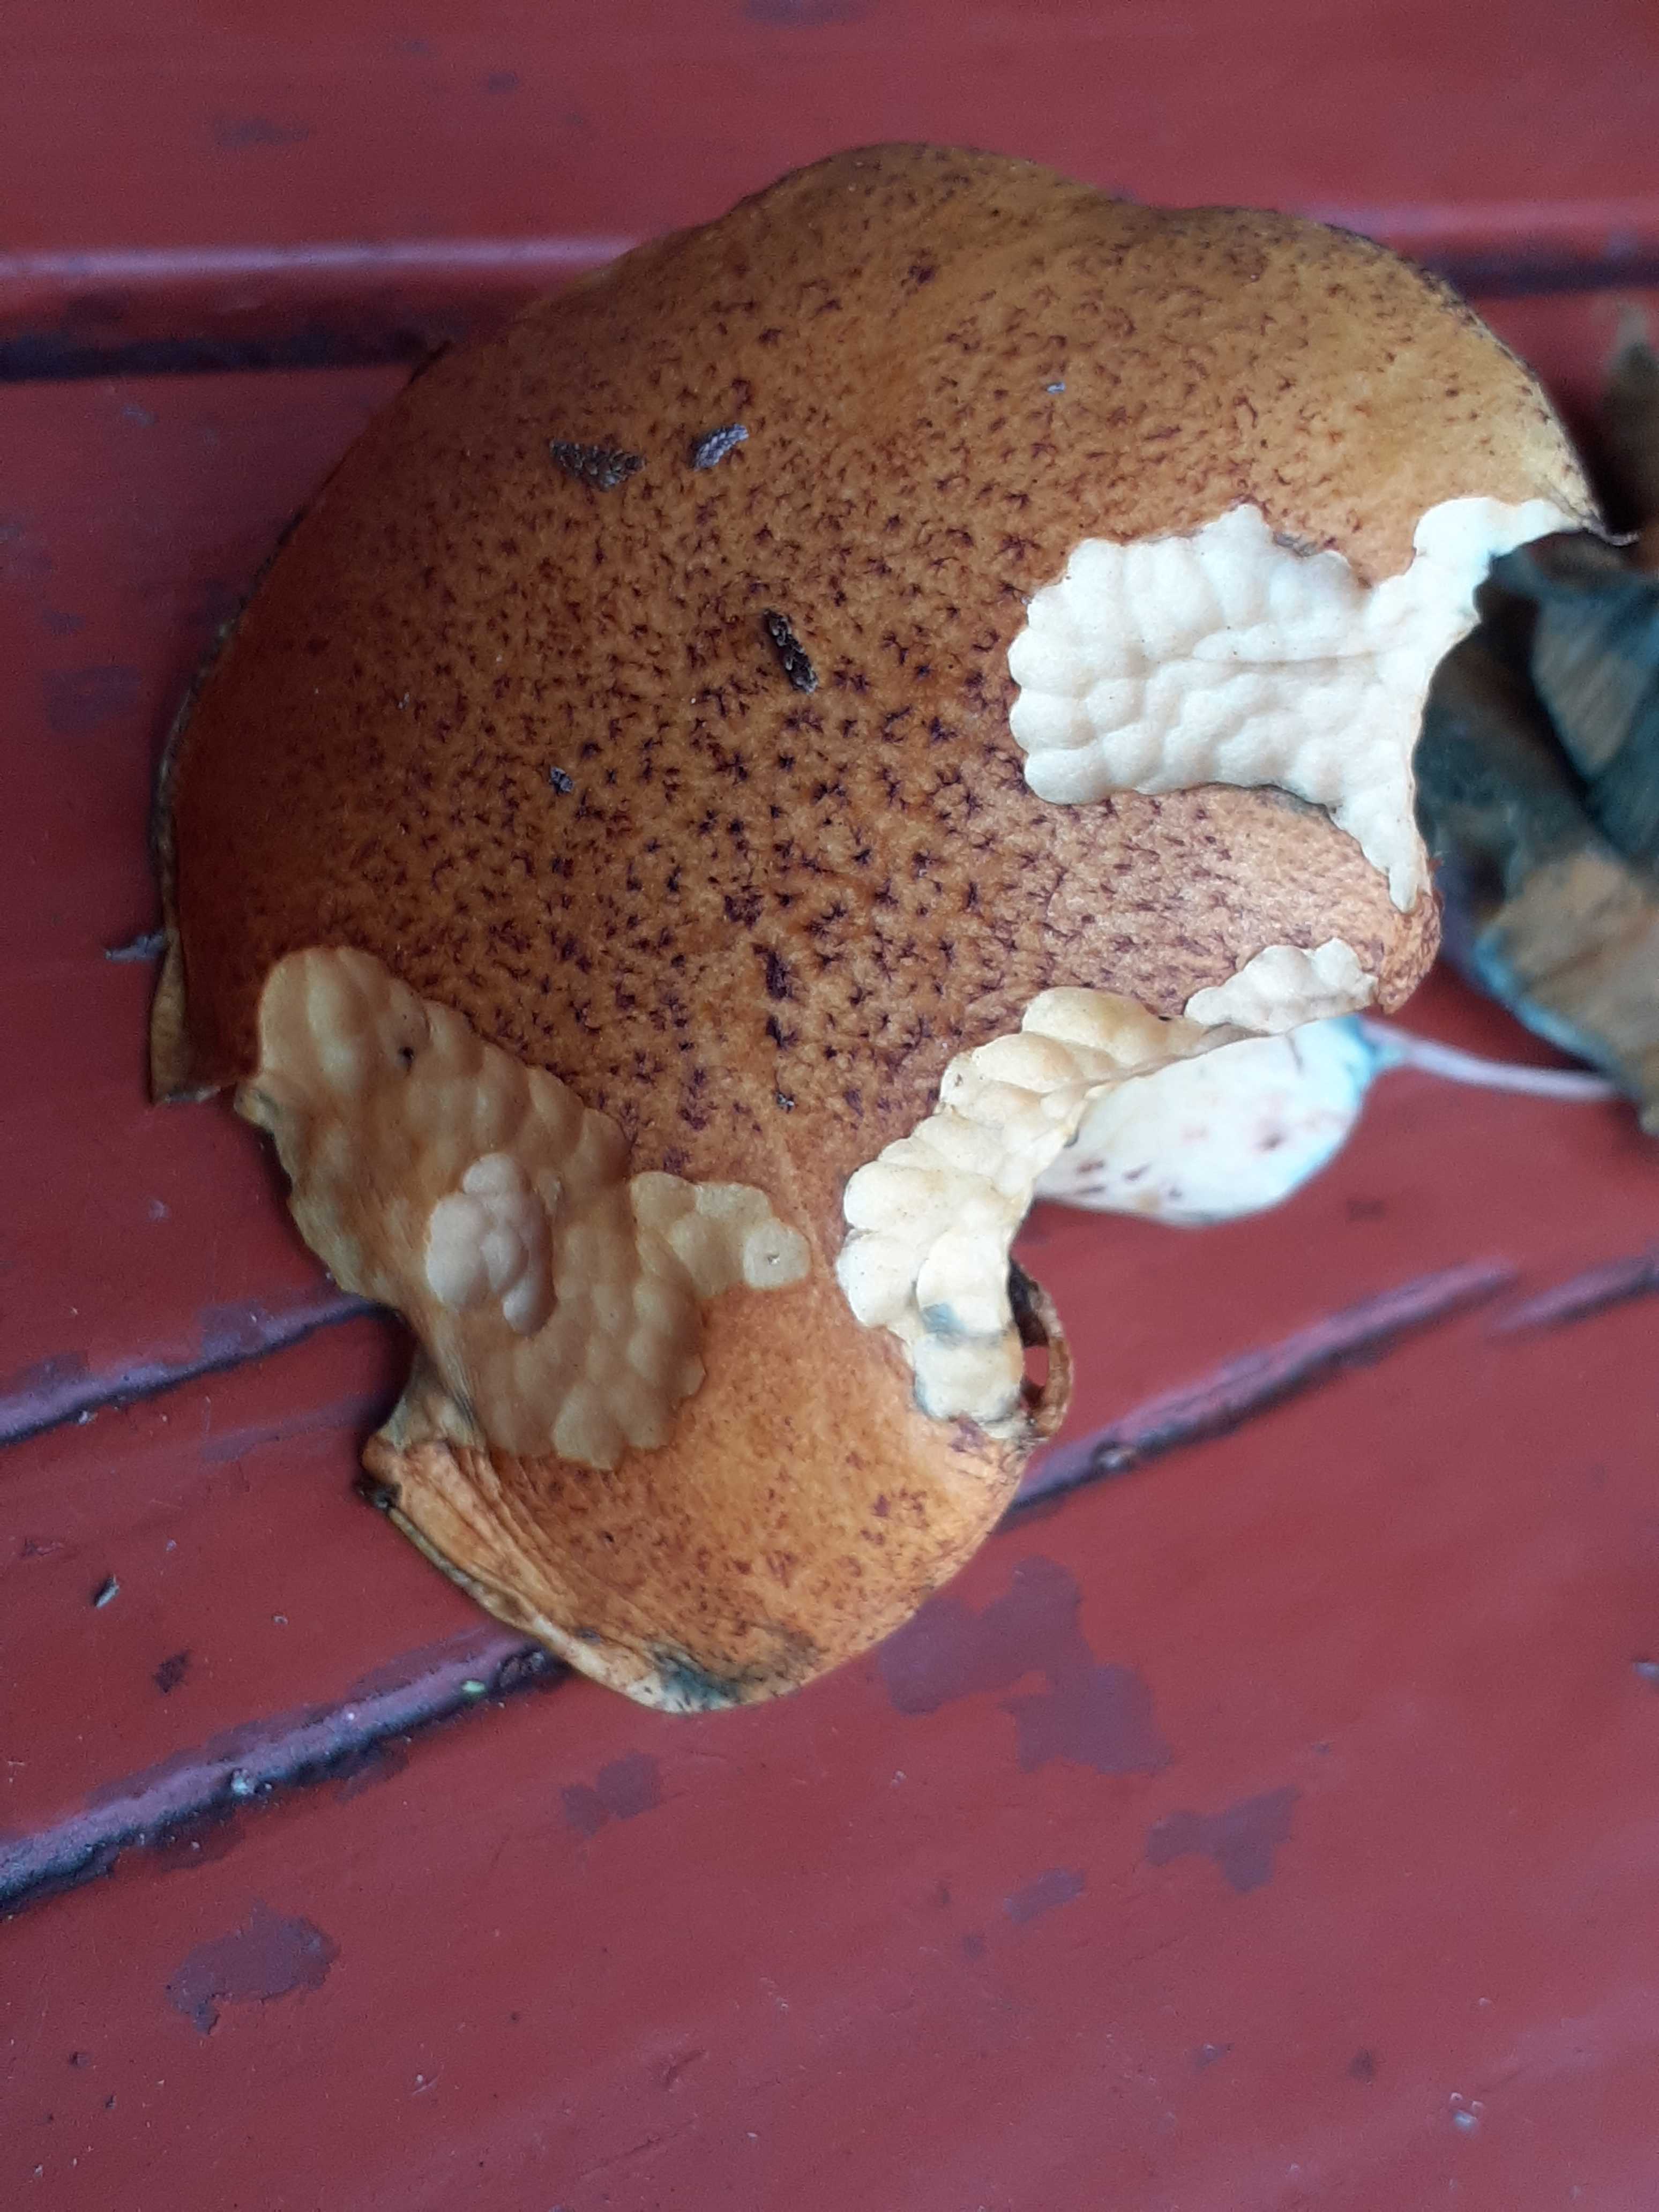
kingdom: Fungi
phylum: Basidiomycota
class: Agaricomycetes
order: Boletales
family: Suillaceae
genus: Suillus
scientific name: Suillus variegatus
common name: broget slimrørhat
